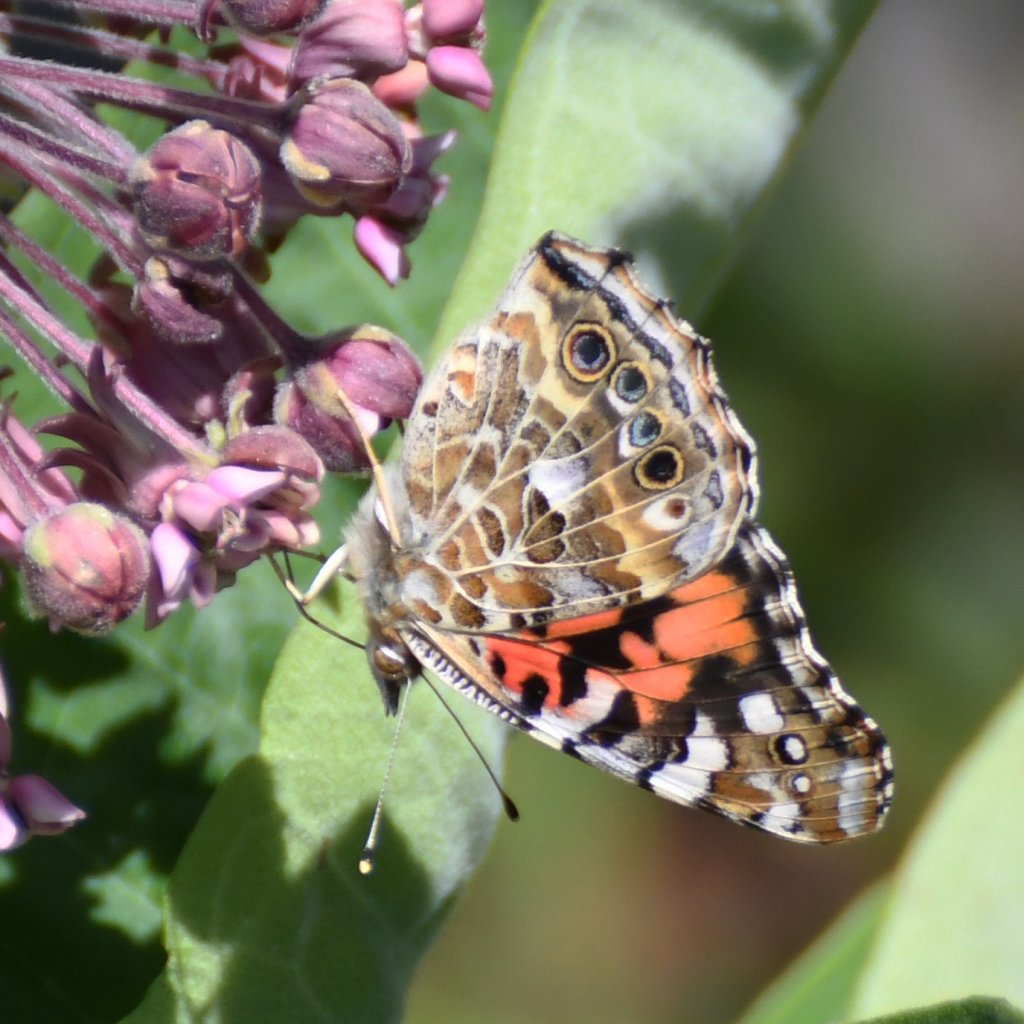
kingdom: Animalia
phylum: Arthropoda
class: Insecta
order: Lepidoptera
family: Nymphalidae
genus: Vanessa
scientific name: Vanessa cardui
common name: Painted Lady
